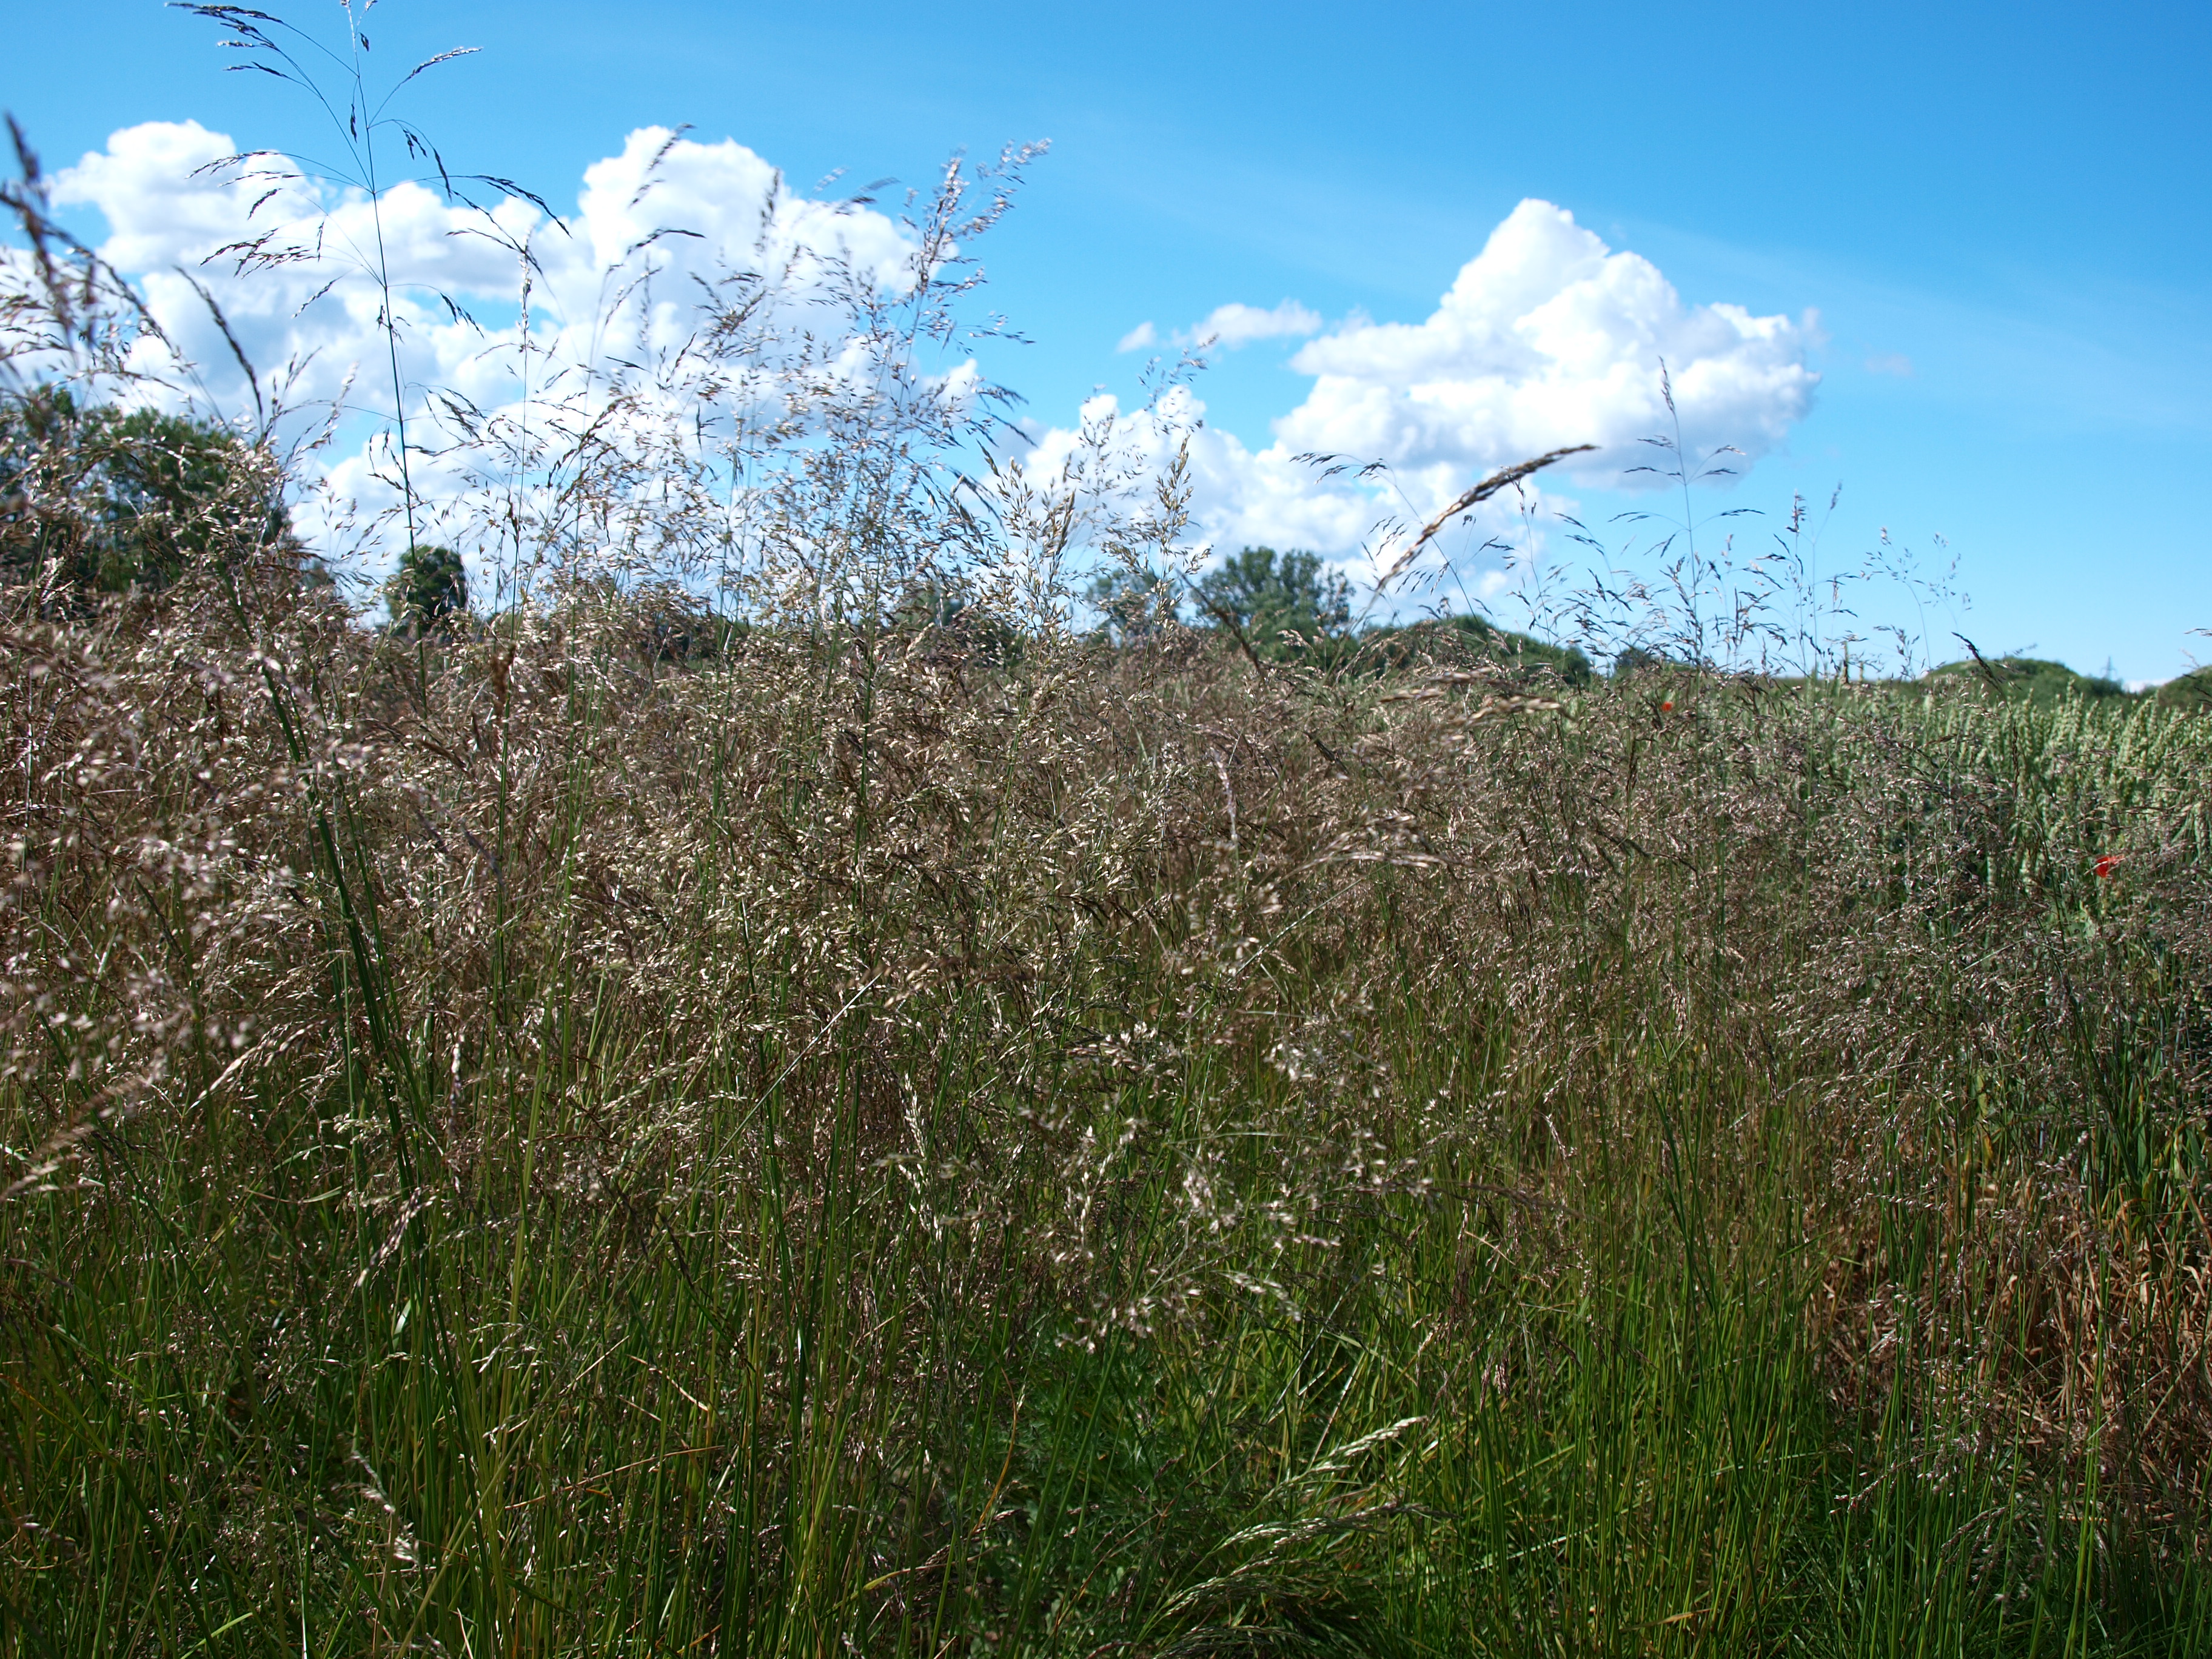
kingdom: Plantae
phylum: Tracheophyta
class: Liliopsida
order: Poales
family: Poaceae
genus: Deschampsia
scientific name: Deschampsia cespitosa
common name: Tufted hair-grass
